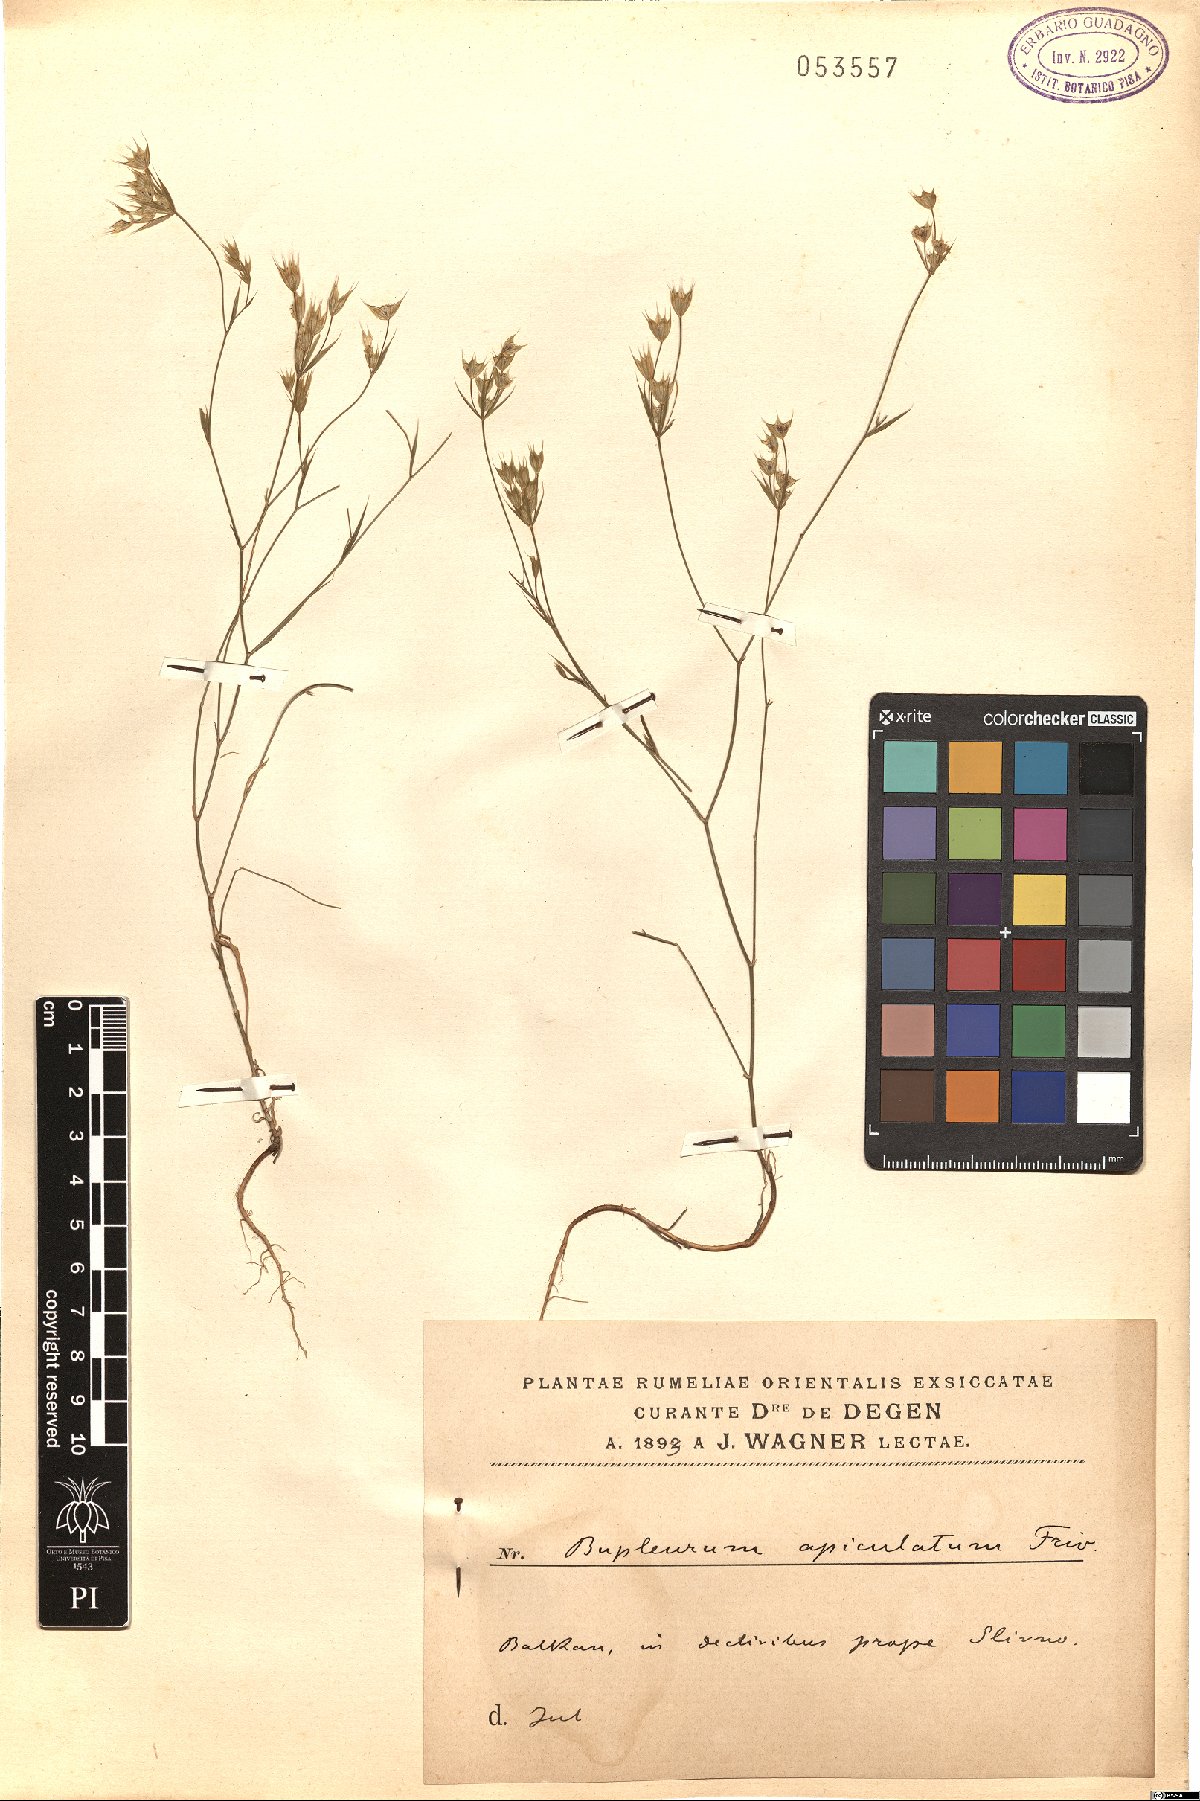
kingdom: Plantae
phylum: Tracheophyta
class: Magnoliopsida
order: Apiales
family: Apiaceae
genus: Bupleurum
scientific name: Bupleurum apiculatum
